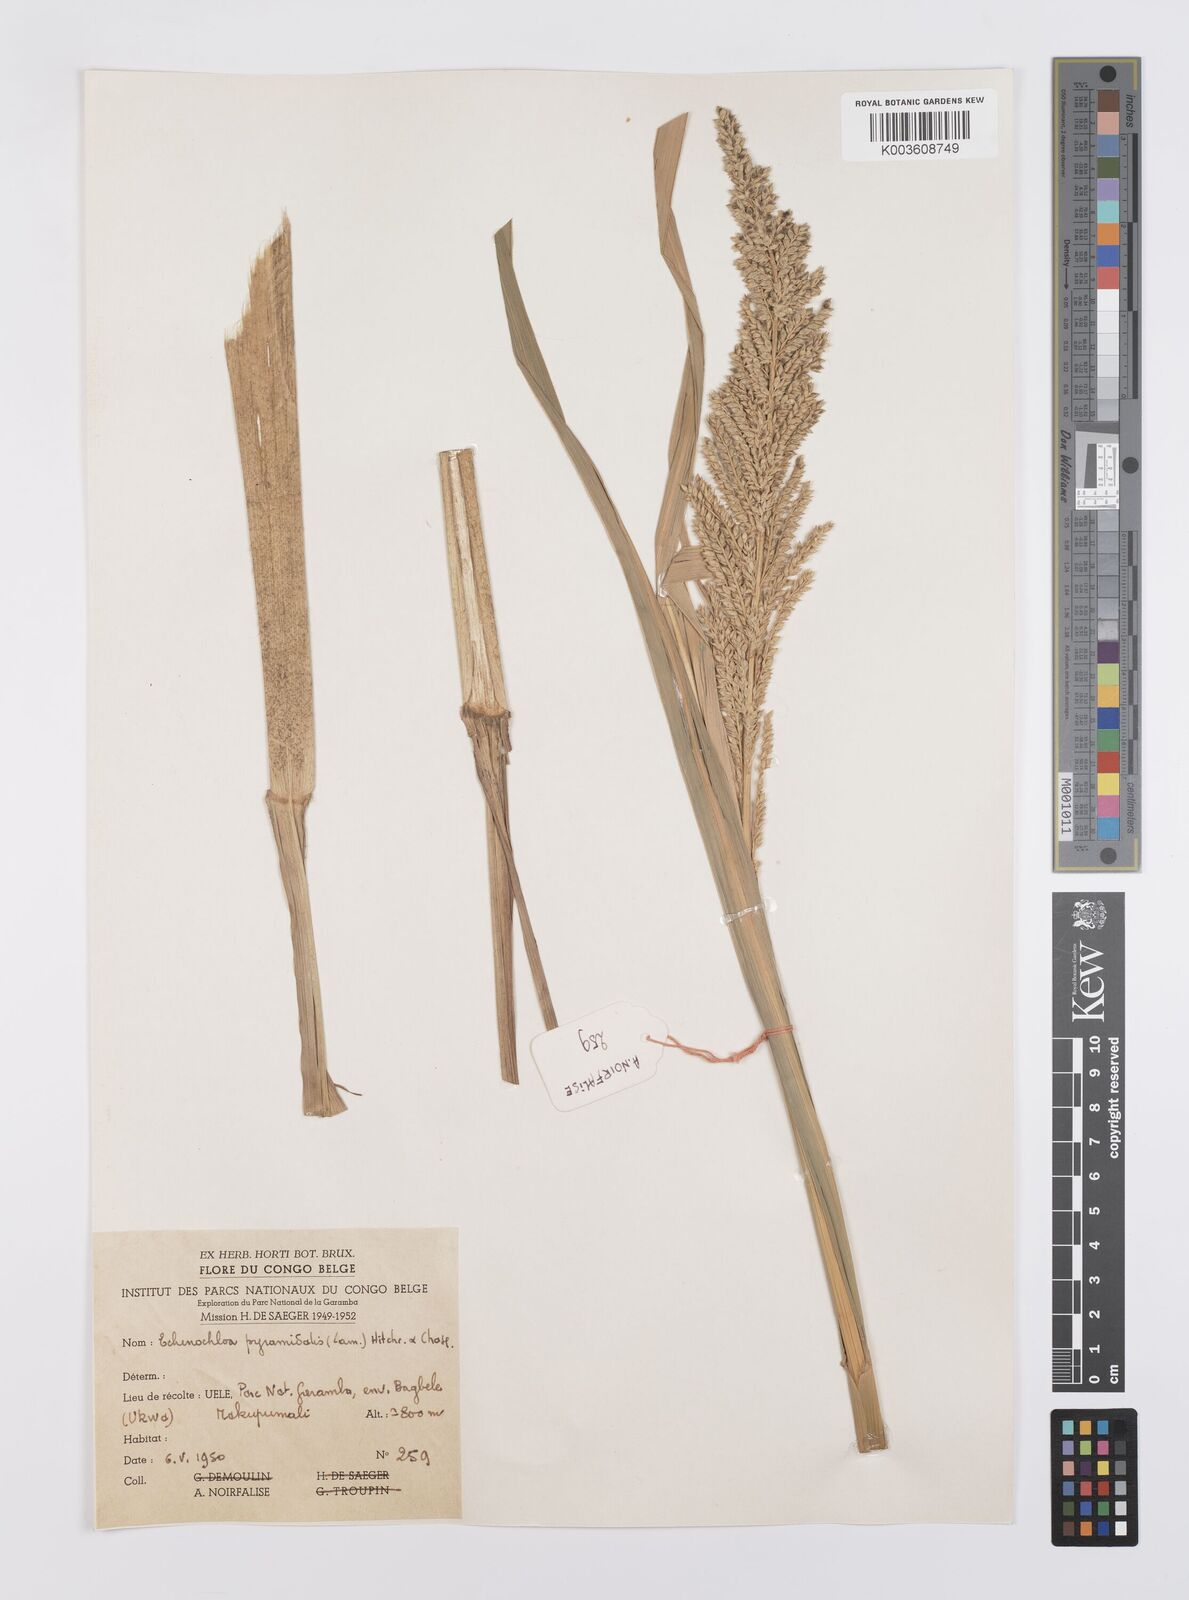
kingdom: Plantae
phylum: Tracheophyta
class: Liliopsida
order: Poales
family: Poaceae
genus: Echinochloa
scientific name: Echinochloa pyramidalis
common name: Antelope grass
